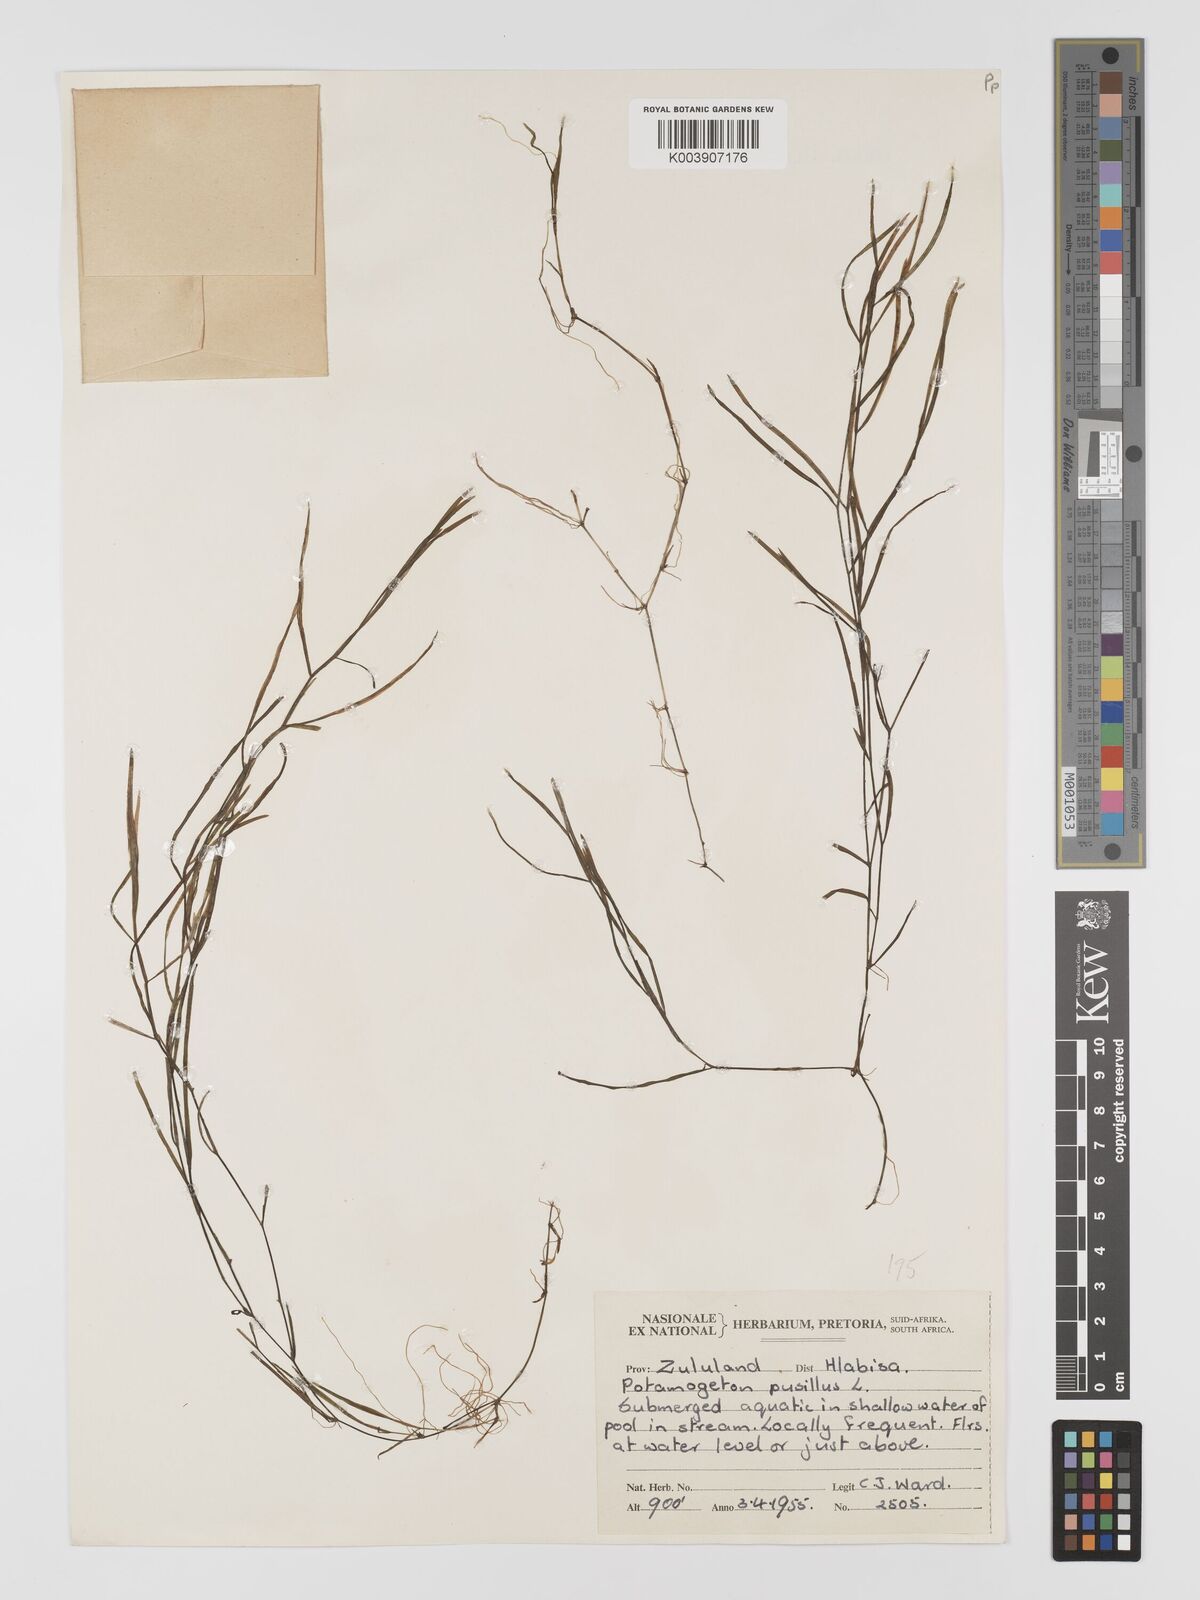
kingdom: Plantae
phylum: Tracheophyta
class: Liliopsida
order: Alismatales
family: Potamogetonaceae
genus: Potamogeton
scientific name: Potamogeton pusillus
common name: Lesser pondweed
